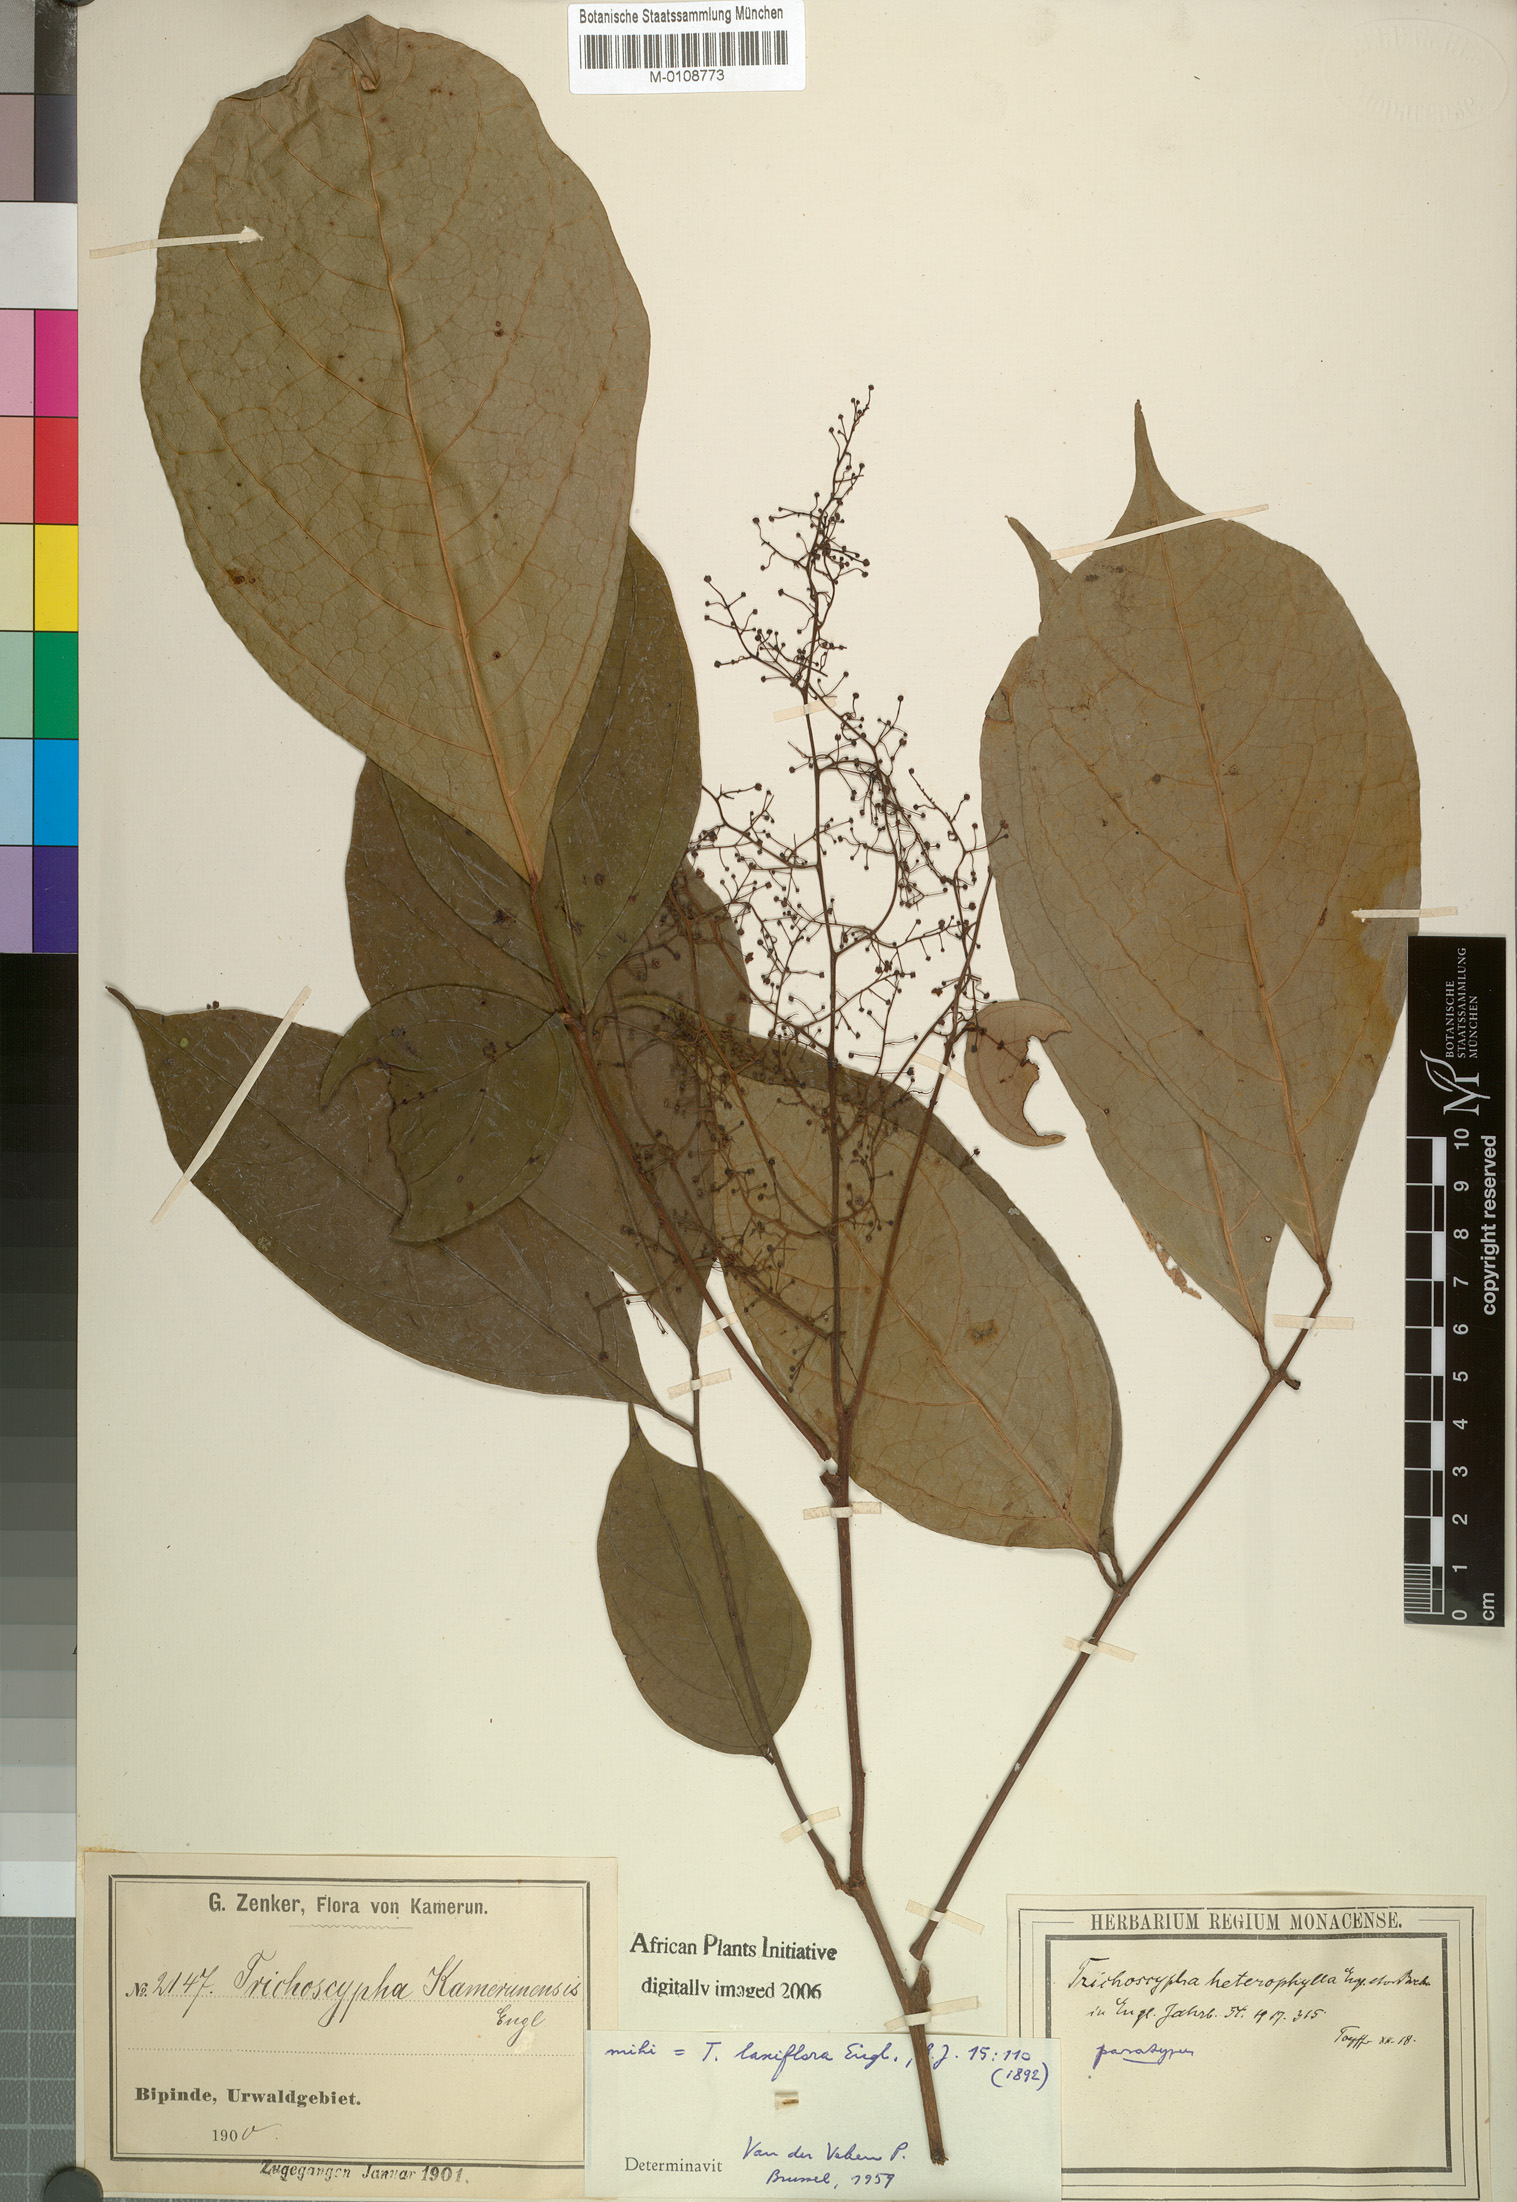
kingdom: Plantae
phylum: Tracheophyta
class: Magnoliopsida
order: Sapindales
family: Anacardiaceae
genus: Trichoscypha
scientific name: Trichoscypha laxiflora
